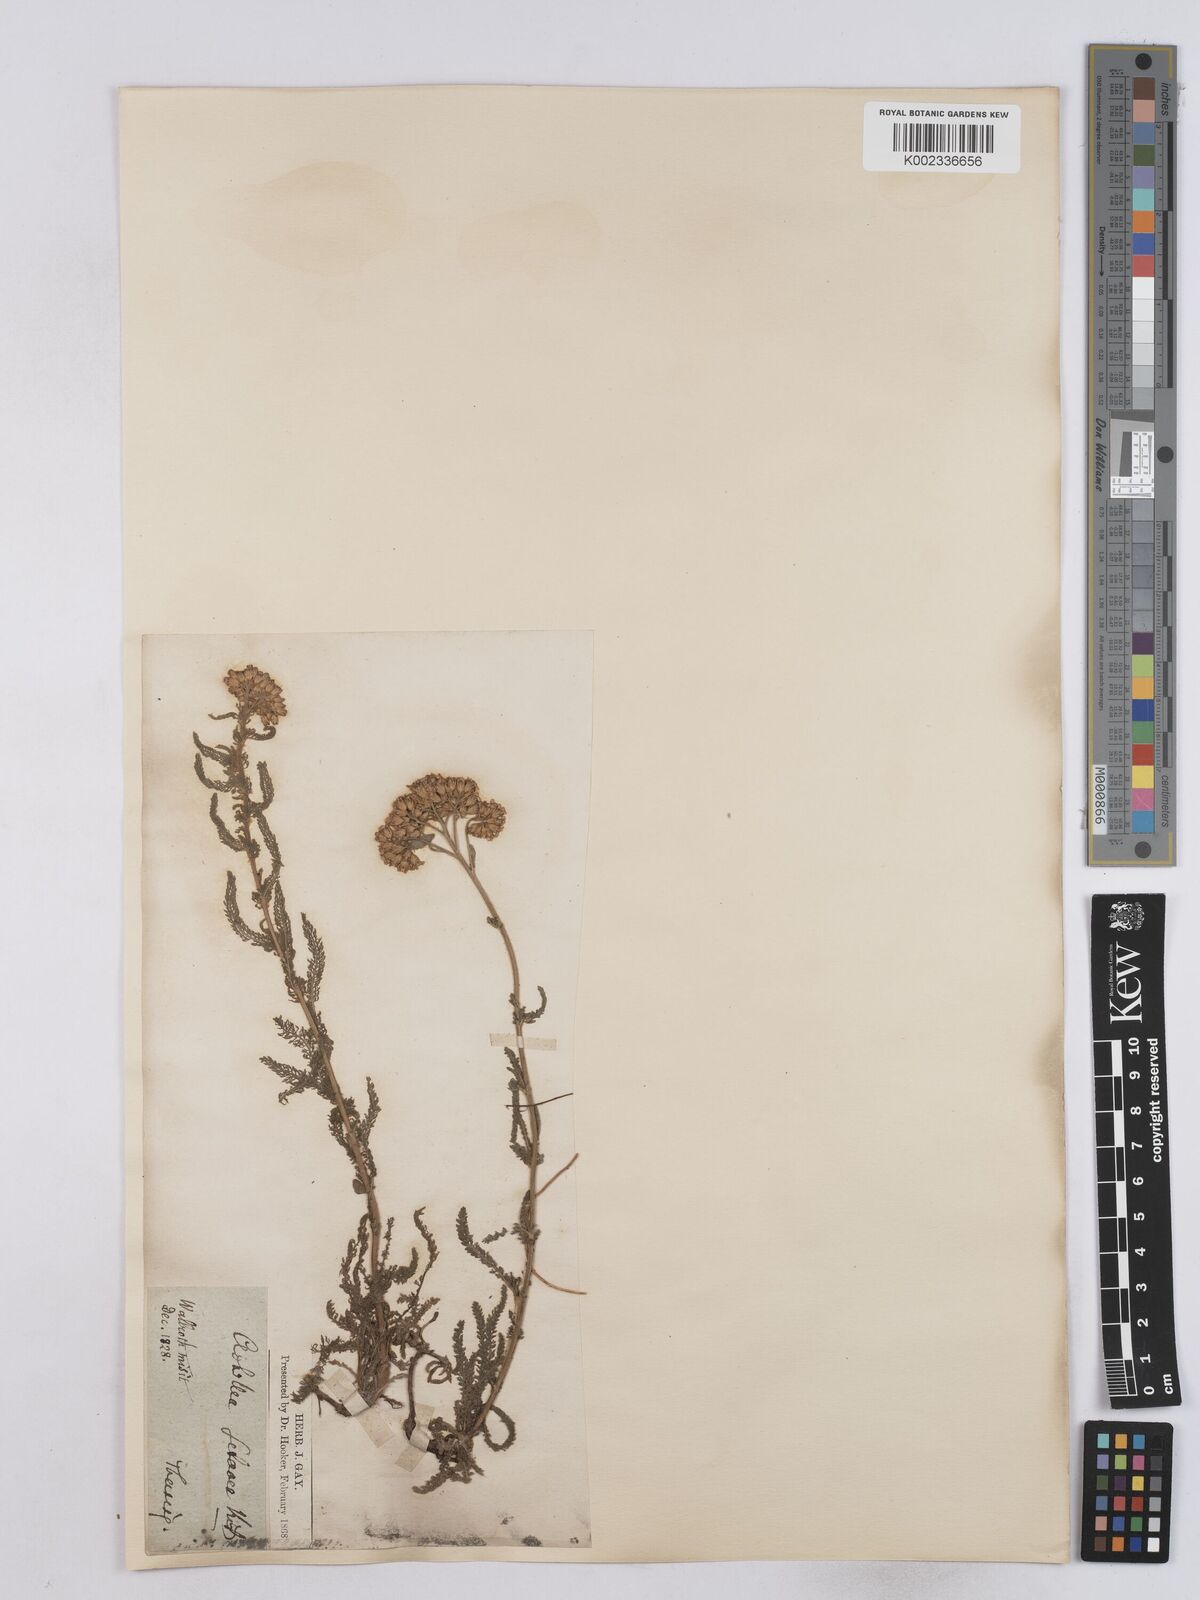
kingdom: Plantae
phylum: Tracheophyta
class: Magnoliopsida
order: Asterales
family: Asteraceae
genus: Achillea
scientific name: Achillea setacea
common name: Bristly yarrow
